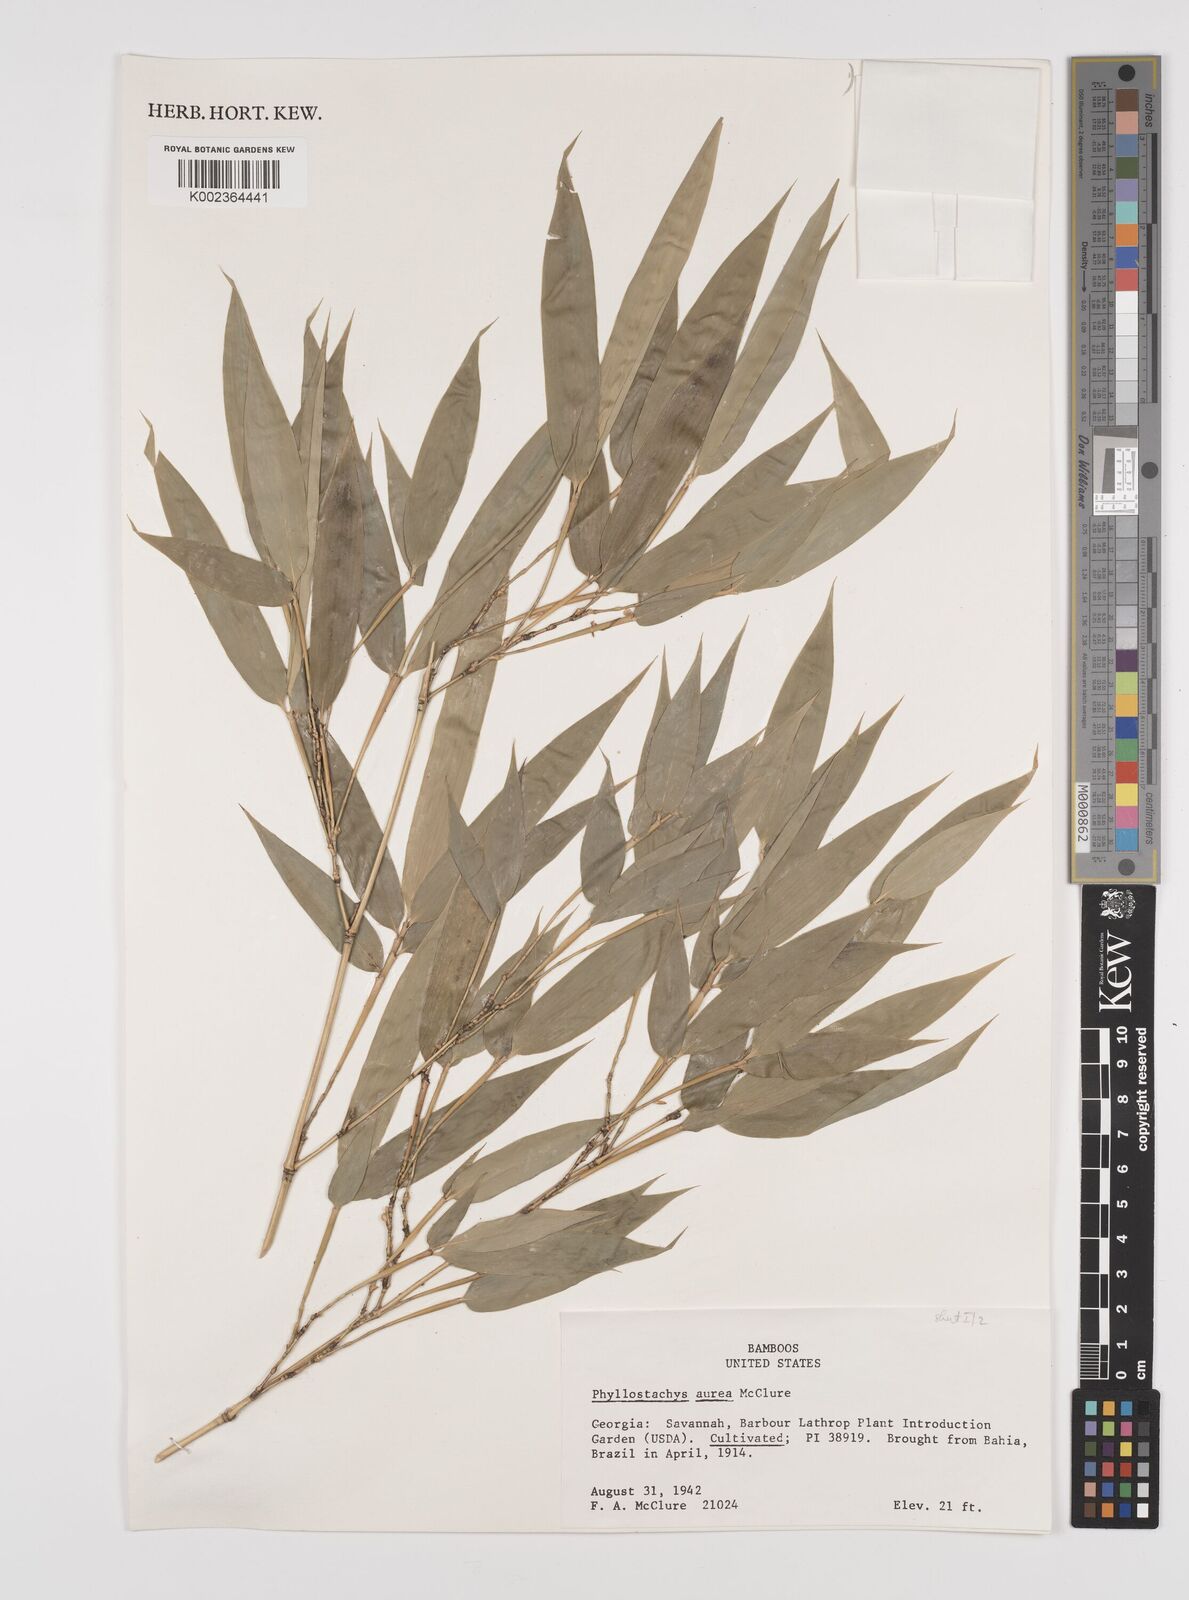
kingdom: Plantae
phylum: Tracheophyta
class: Liliopsida
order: Poales
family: Poaceae
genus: Phyllostachys
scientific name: Phyllostachys aurea
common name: Golden bamboo
